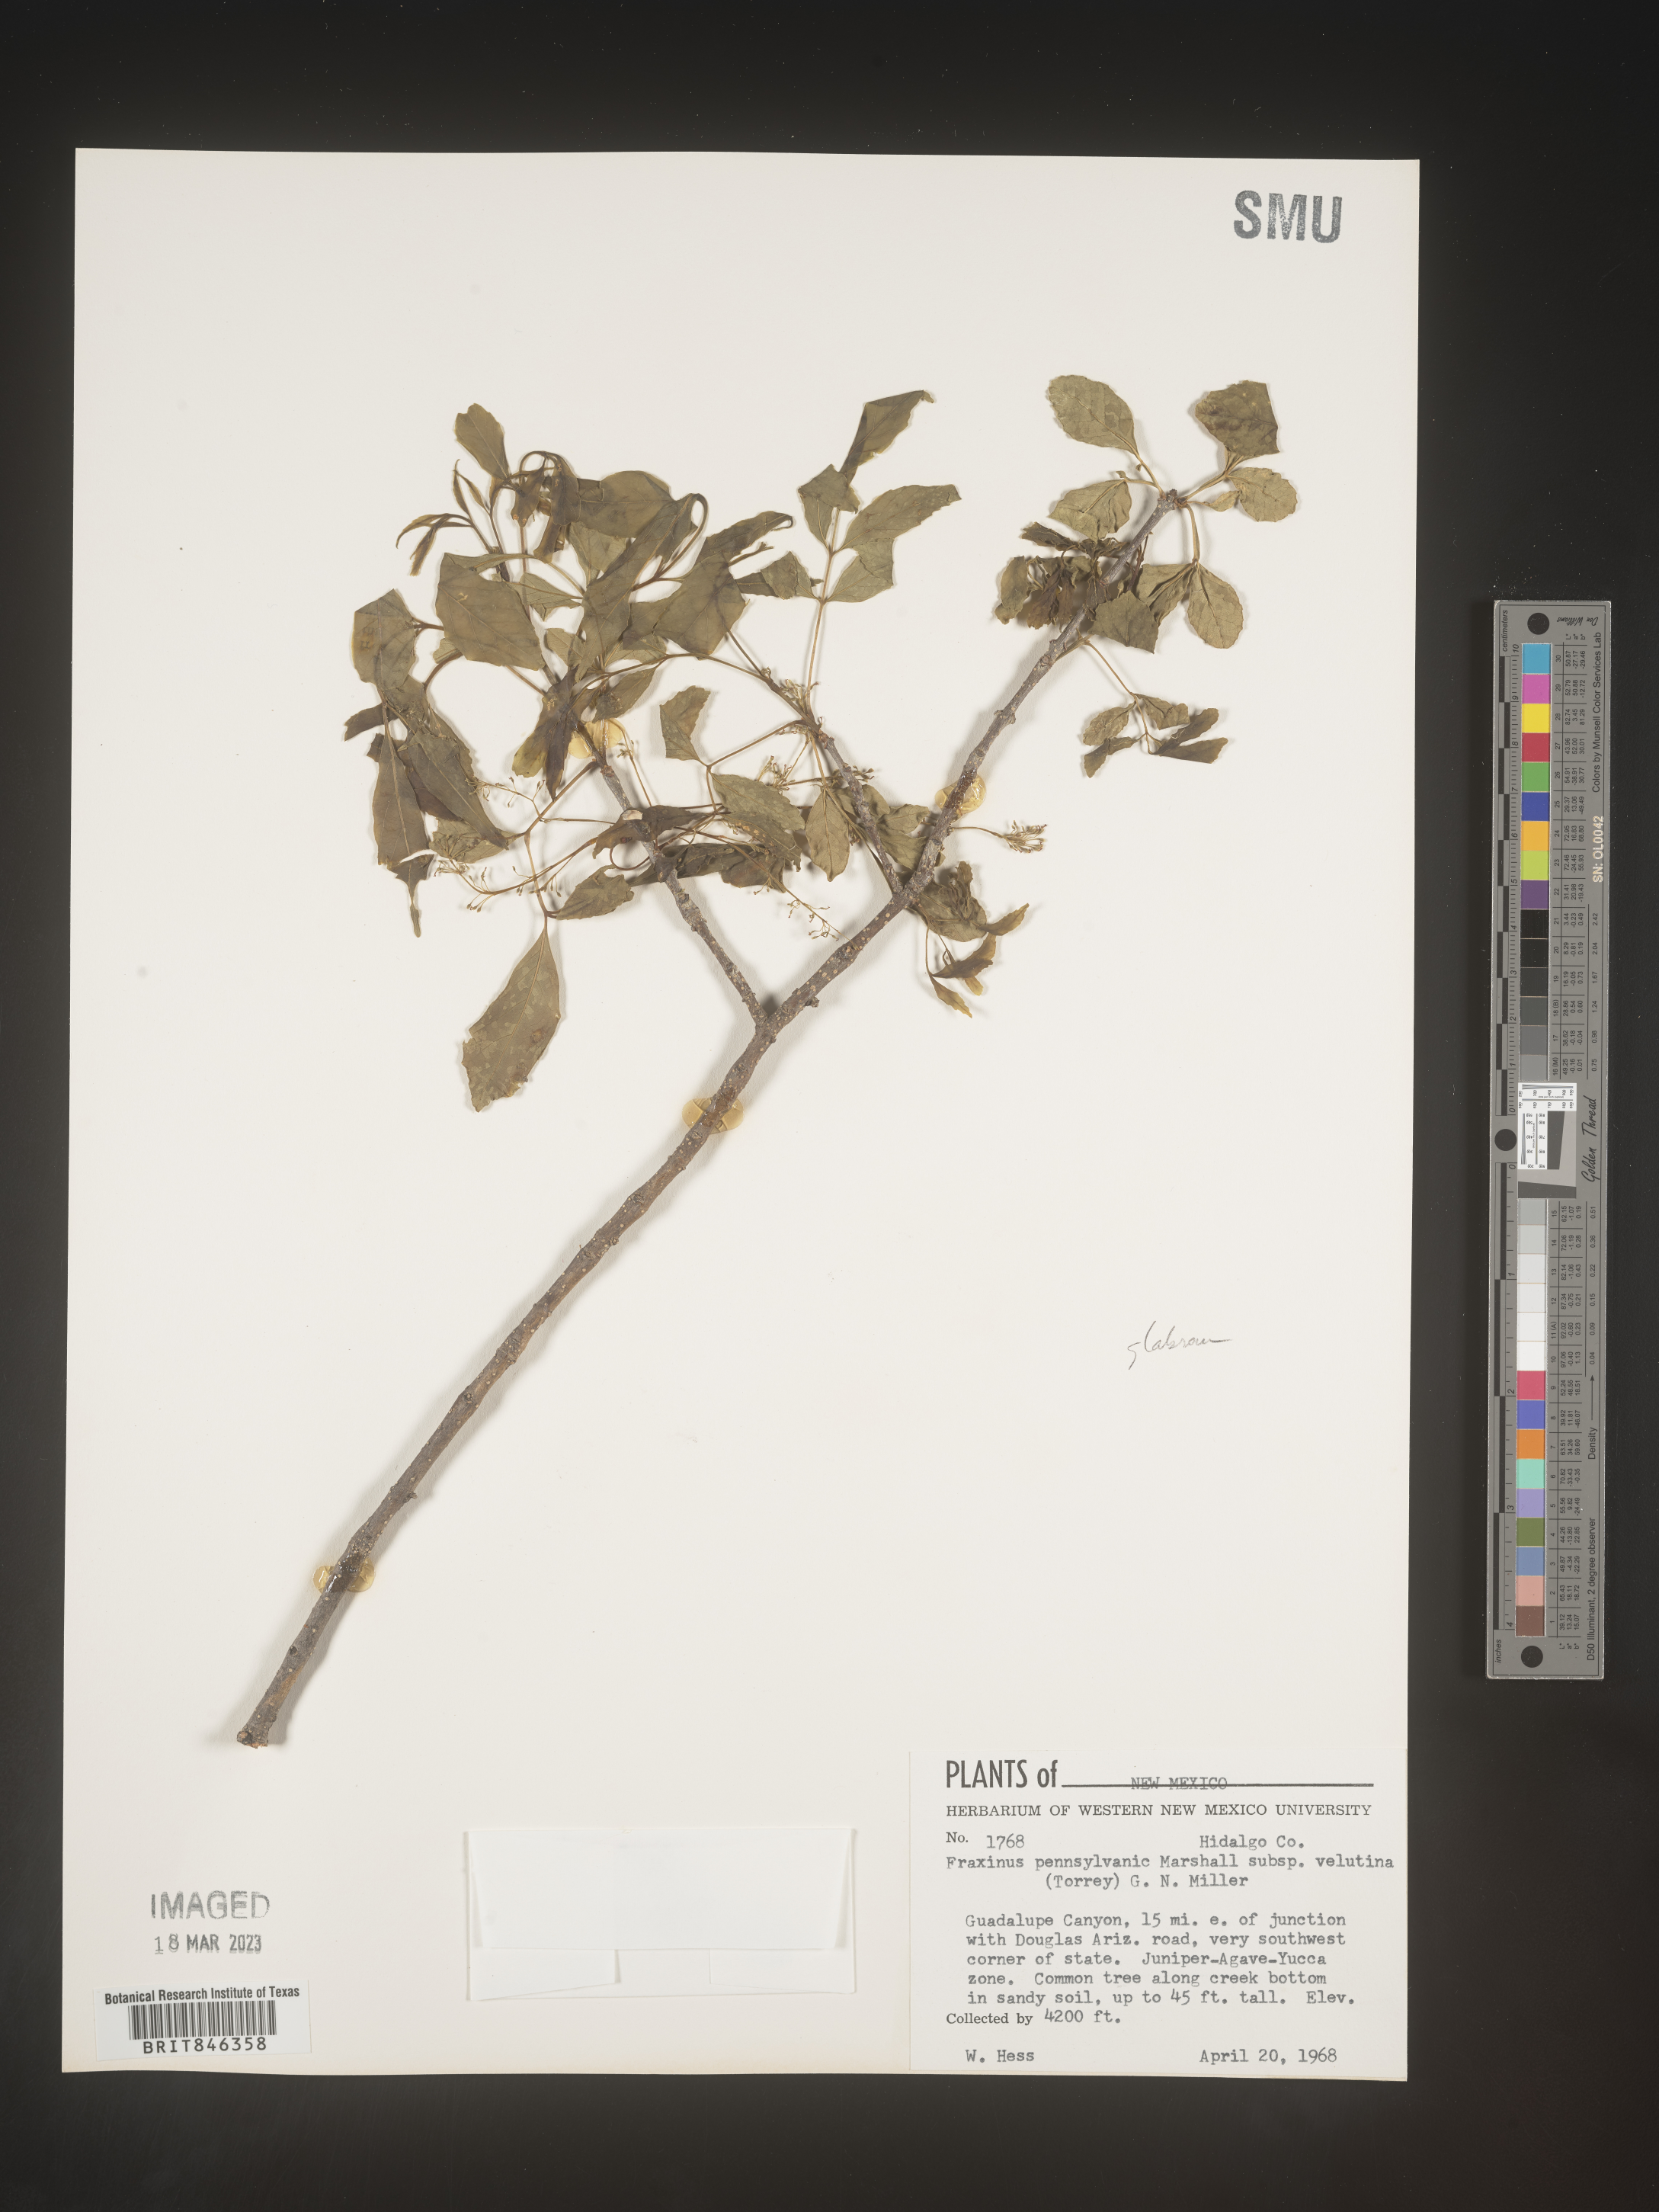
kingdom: Plantae
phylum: Tracheophyta
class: Magnoliopsida
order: Lamiales
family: Oleaceae
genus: Fraxinus
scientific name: Fraxinus velutina
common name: Arizon ash
